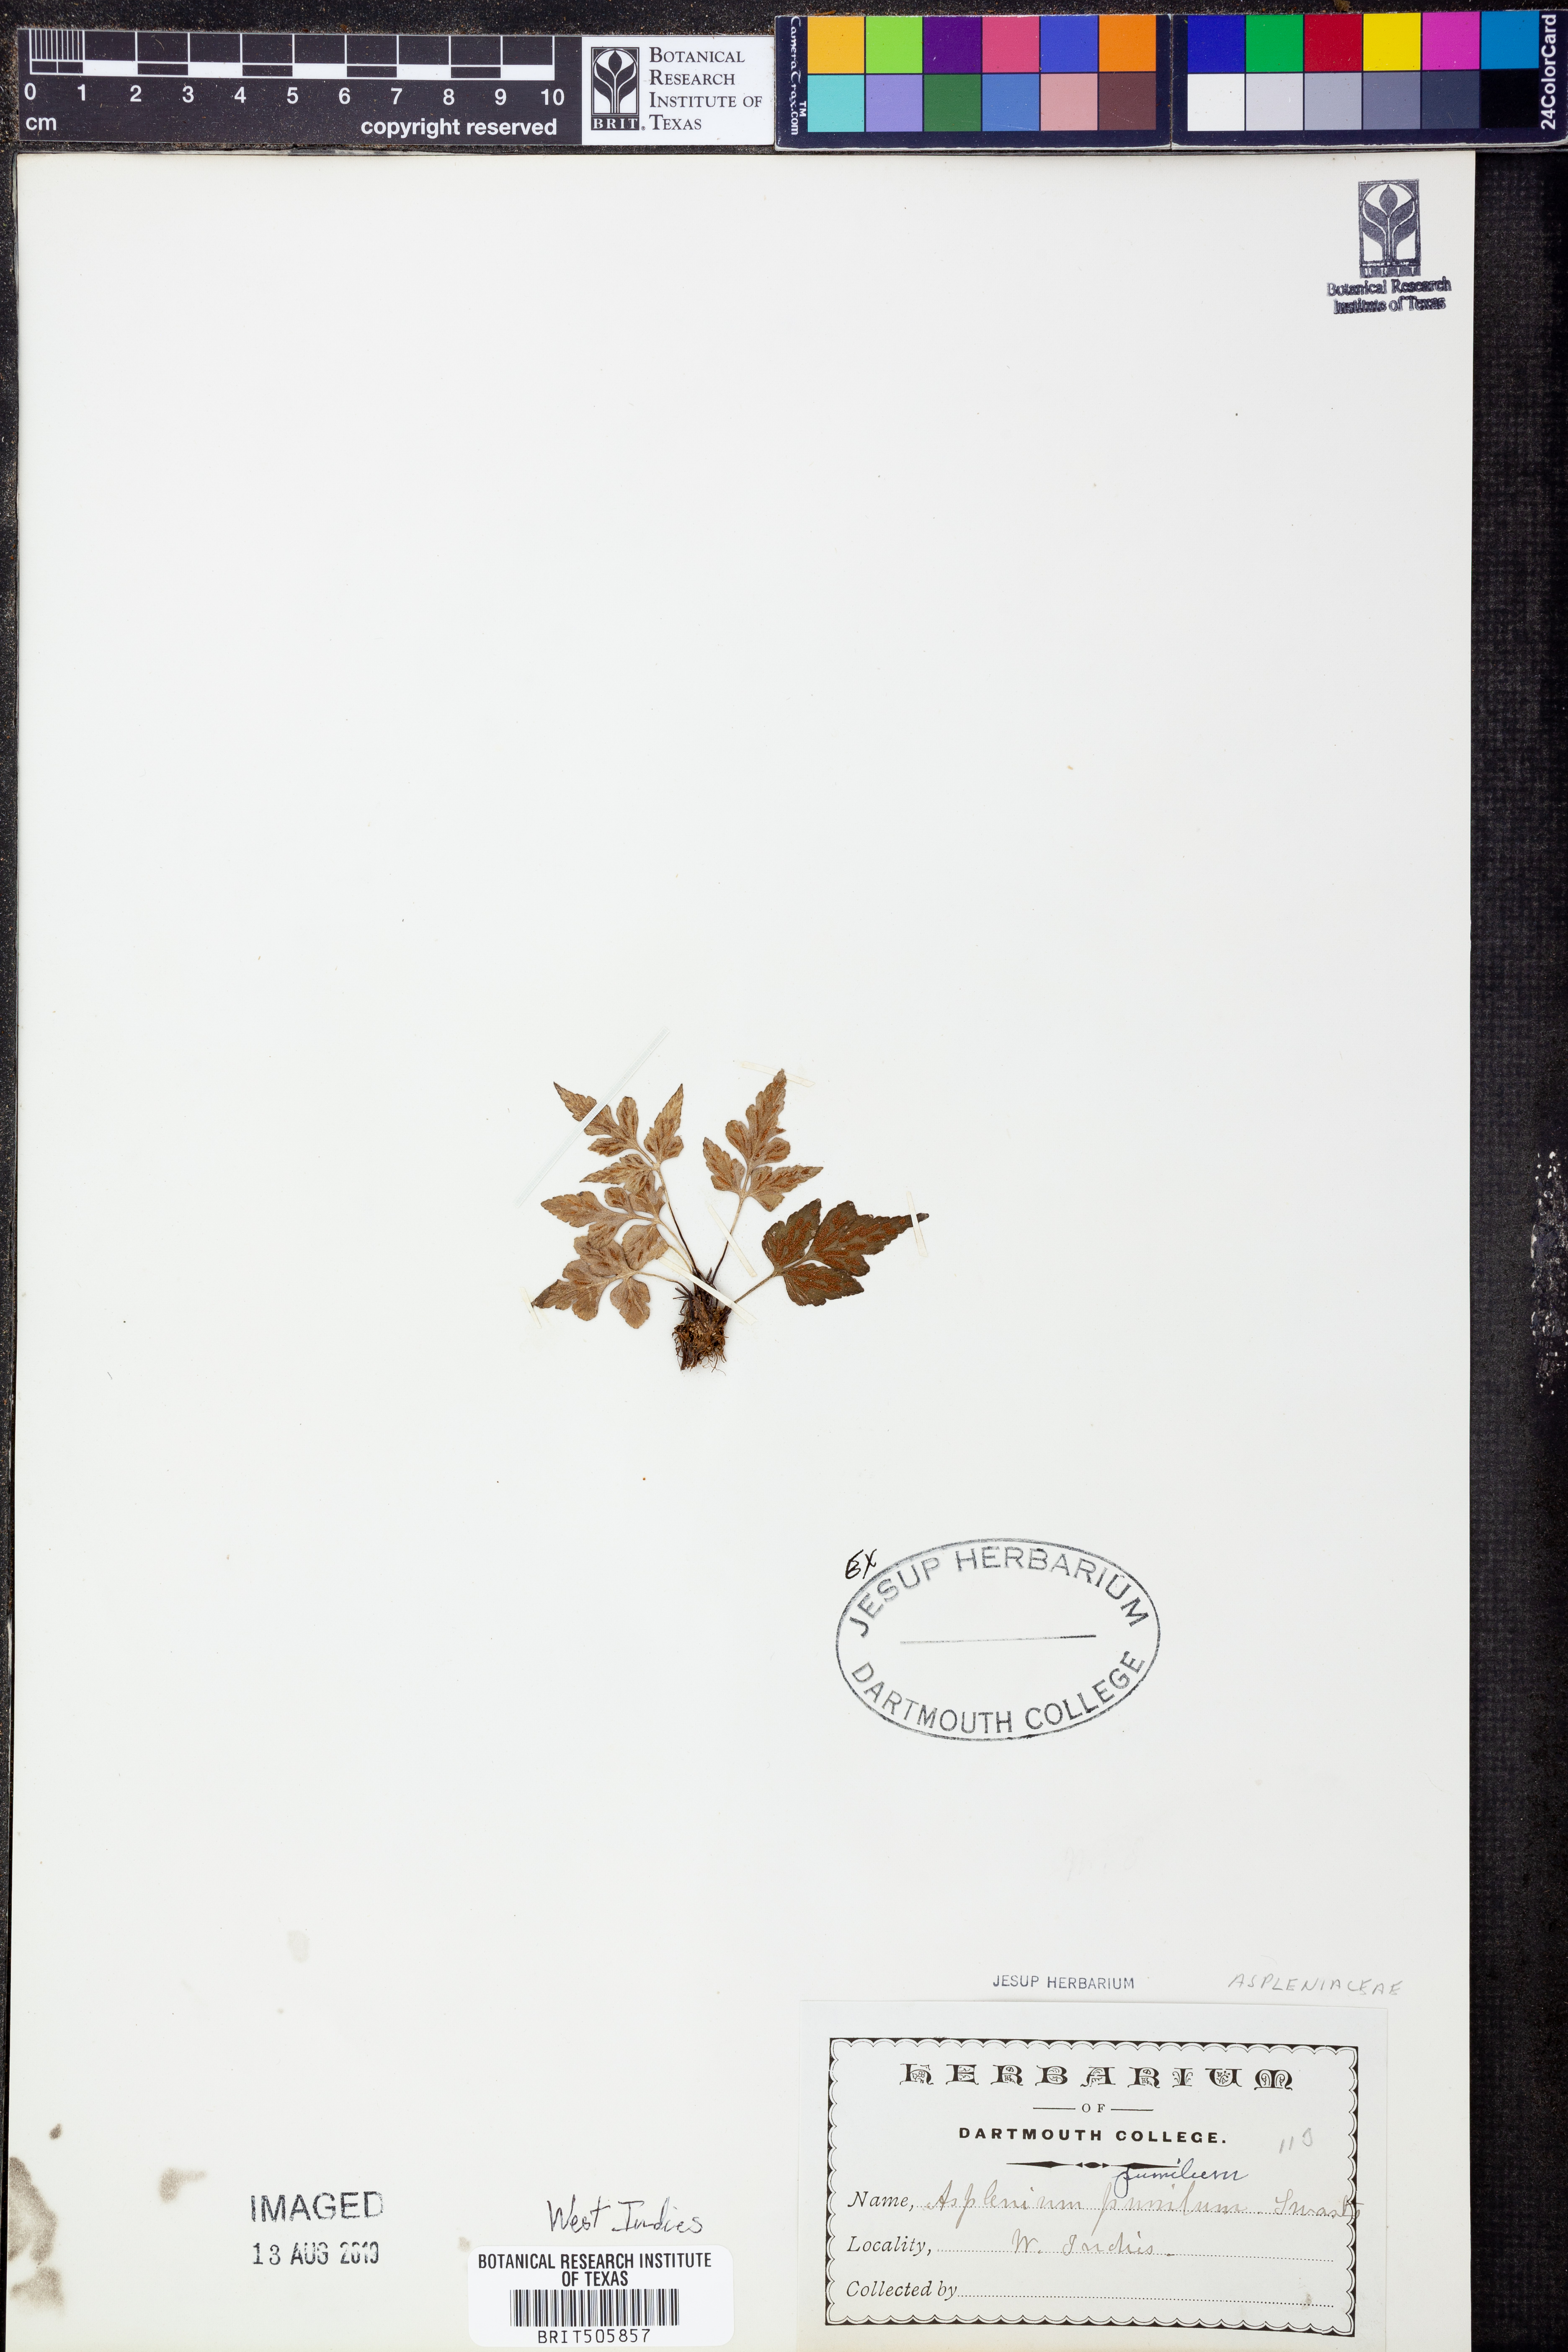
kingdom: Plantae
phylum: Tracheophyta
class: Polypodiopsida
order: Polypodiales
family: Aspleniaceae
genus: Asplenium
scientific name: Asplenium pumilum
